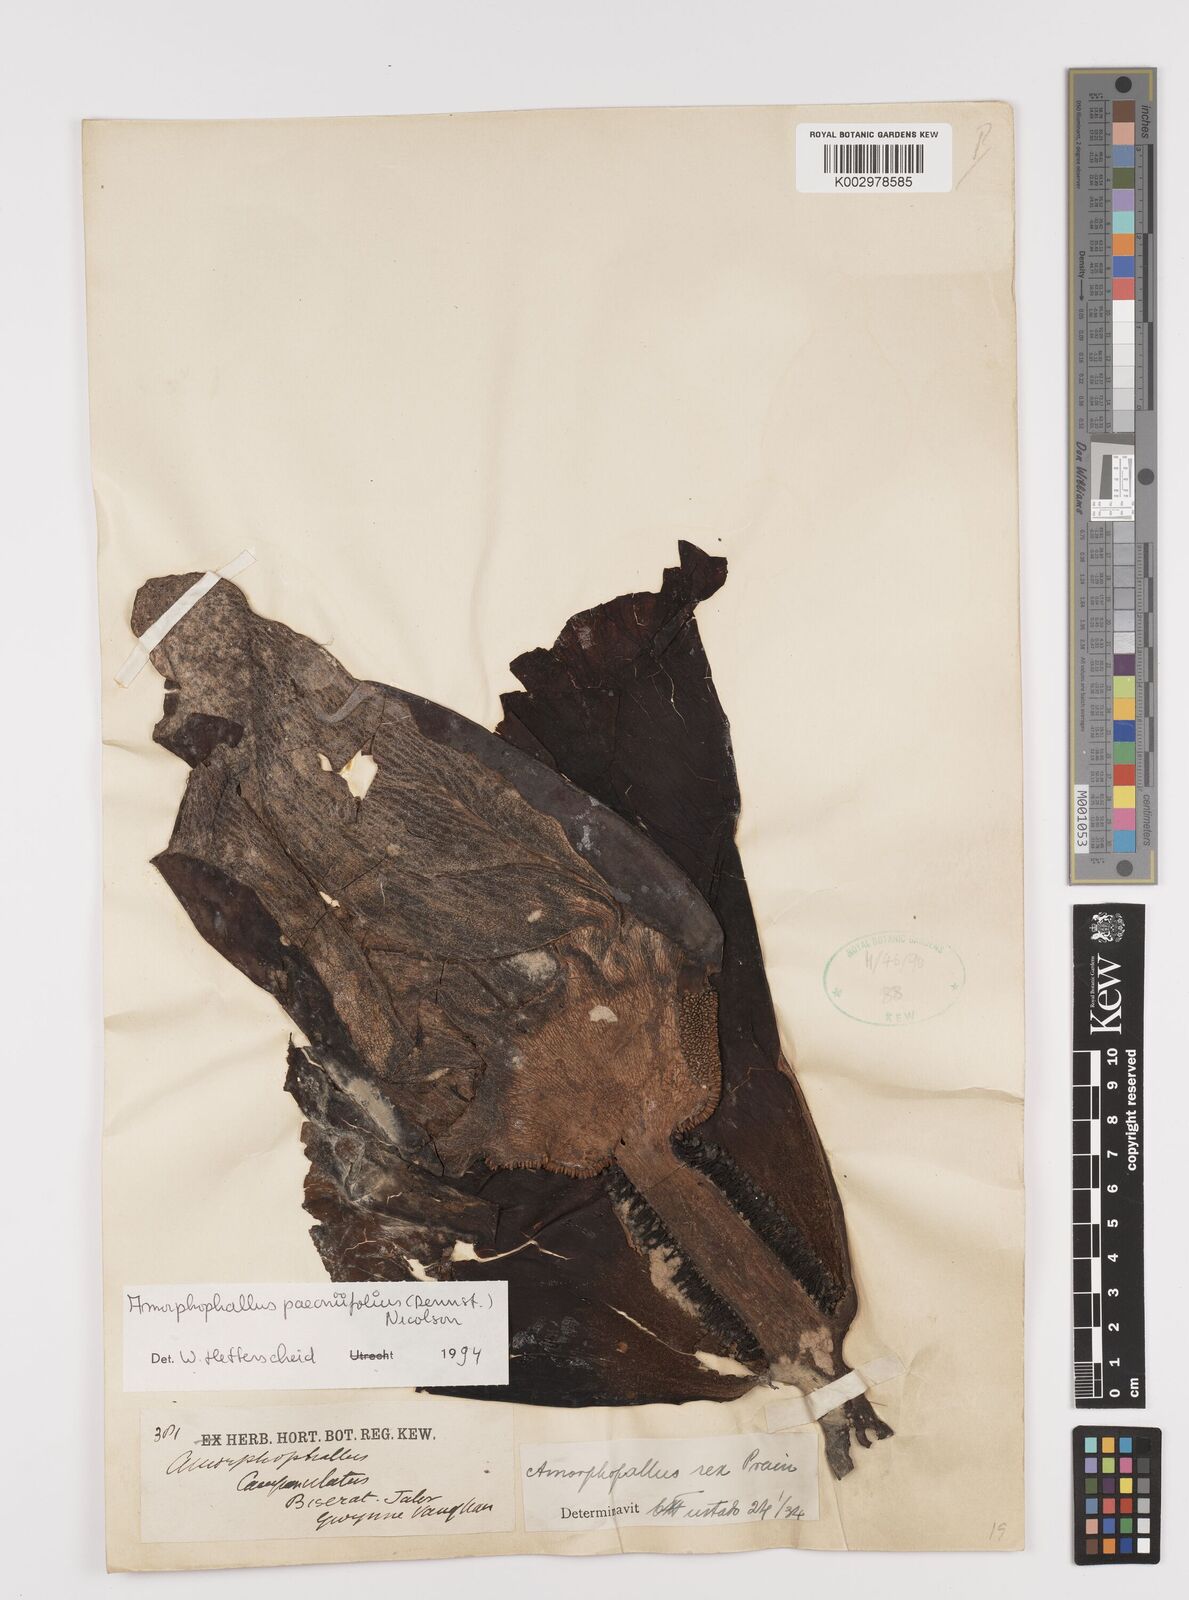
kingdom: Plantae
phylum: Tracheophyta
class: Liliopsida
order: Alismatales
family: Araceae
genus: Amorphophallus
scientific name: Amorphophallus paeoniifolius
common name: Telinga-potato
